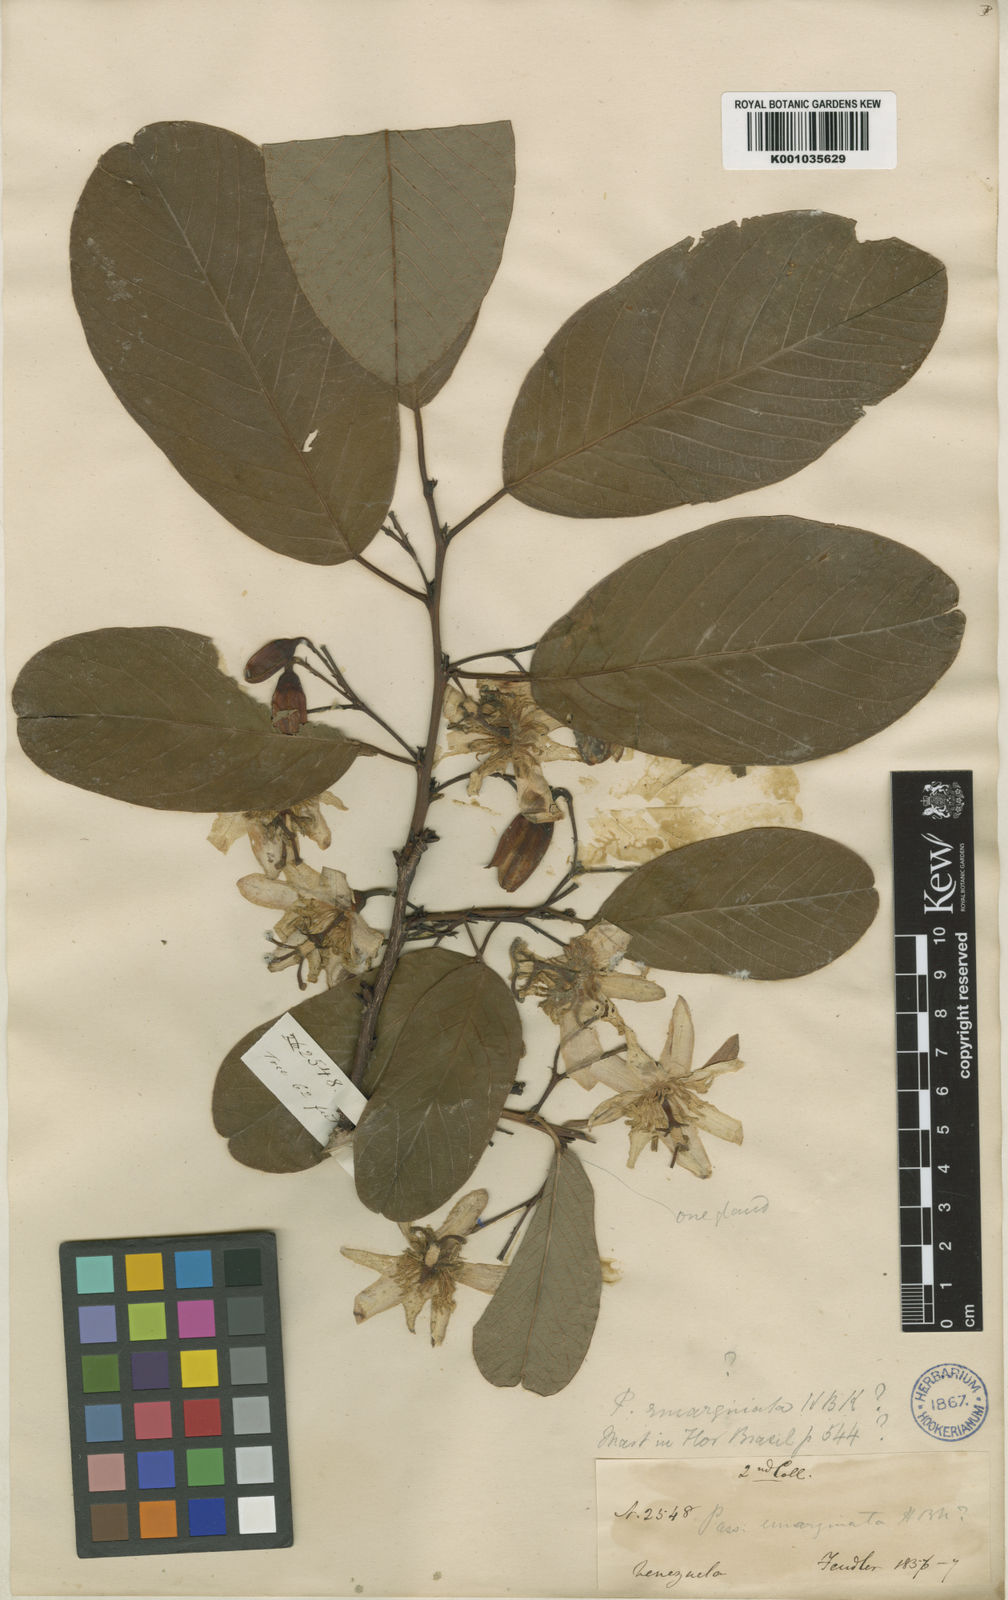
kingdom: Plantae
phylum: Tracheophyta
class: Magnoliopsida
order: Malpighiales
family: Passifloraceae
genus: Passiflora
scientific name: Passiflora lindeniana
